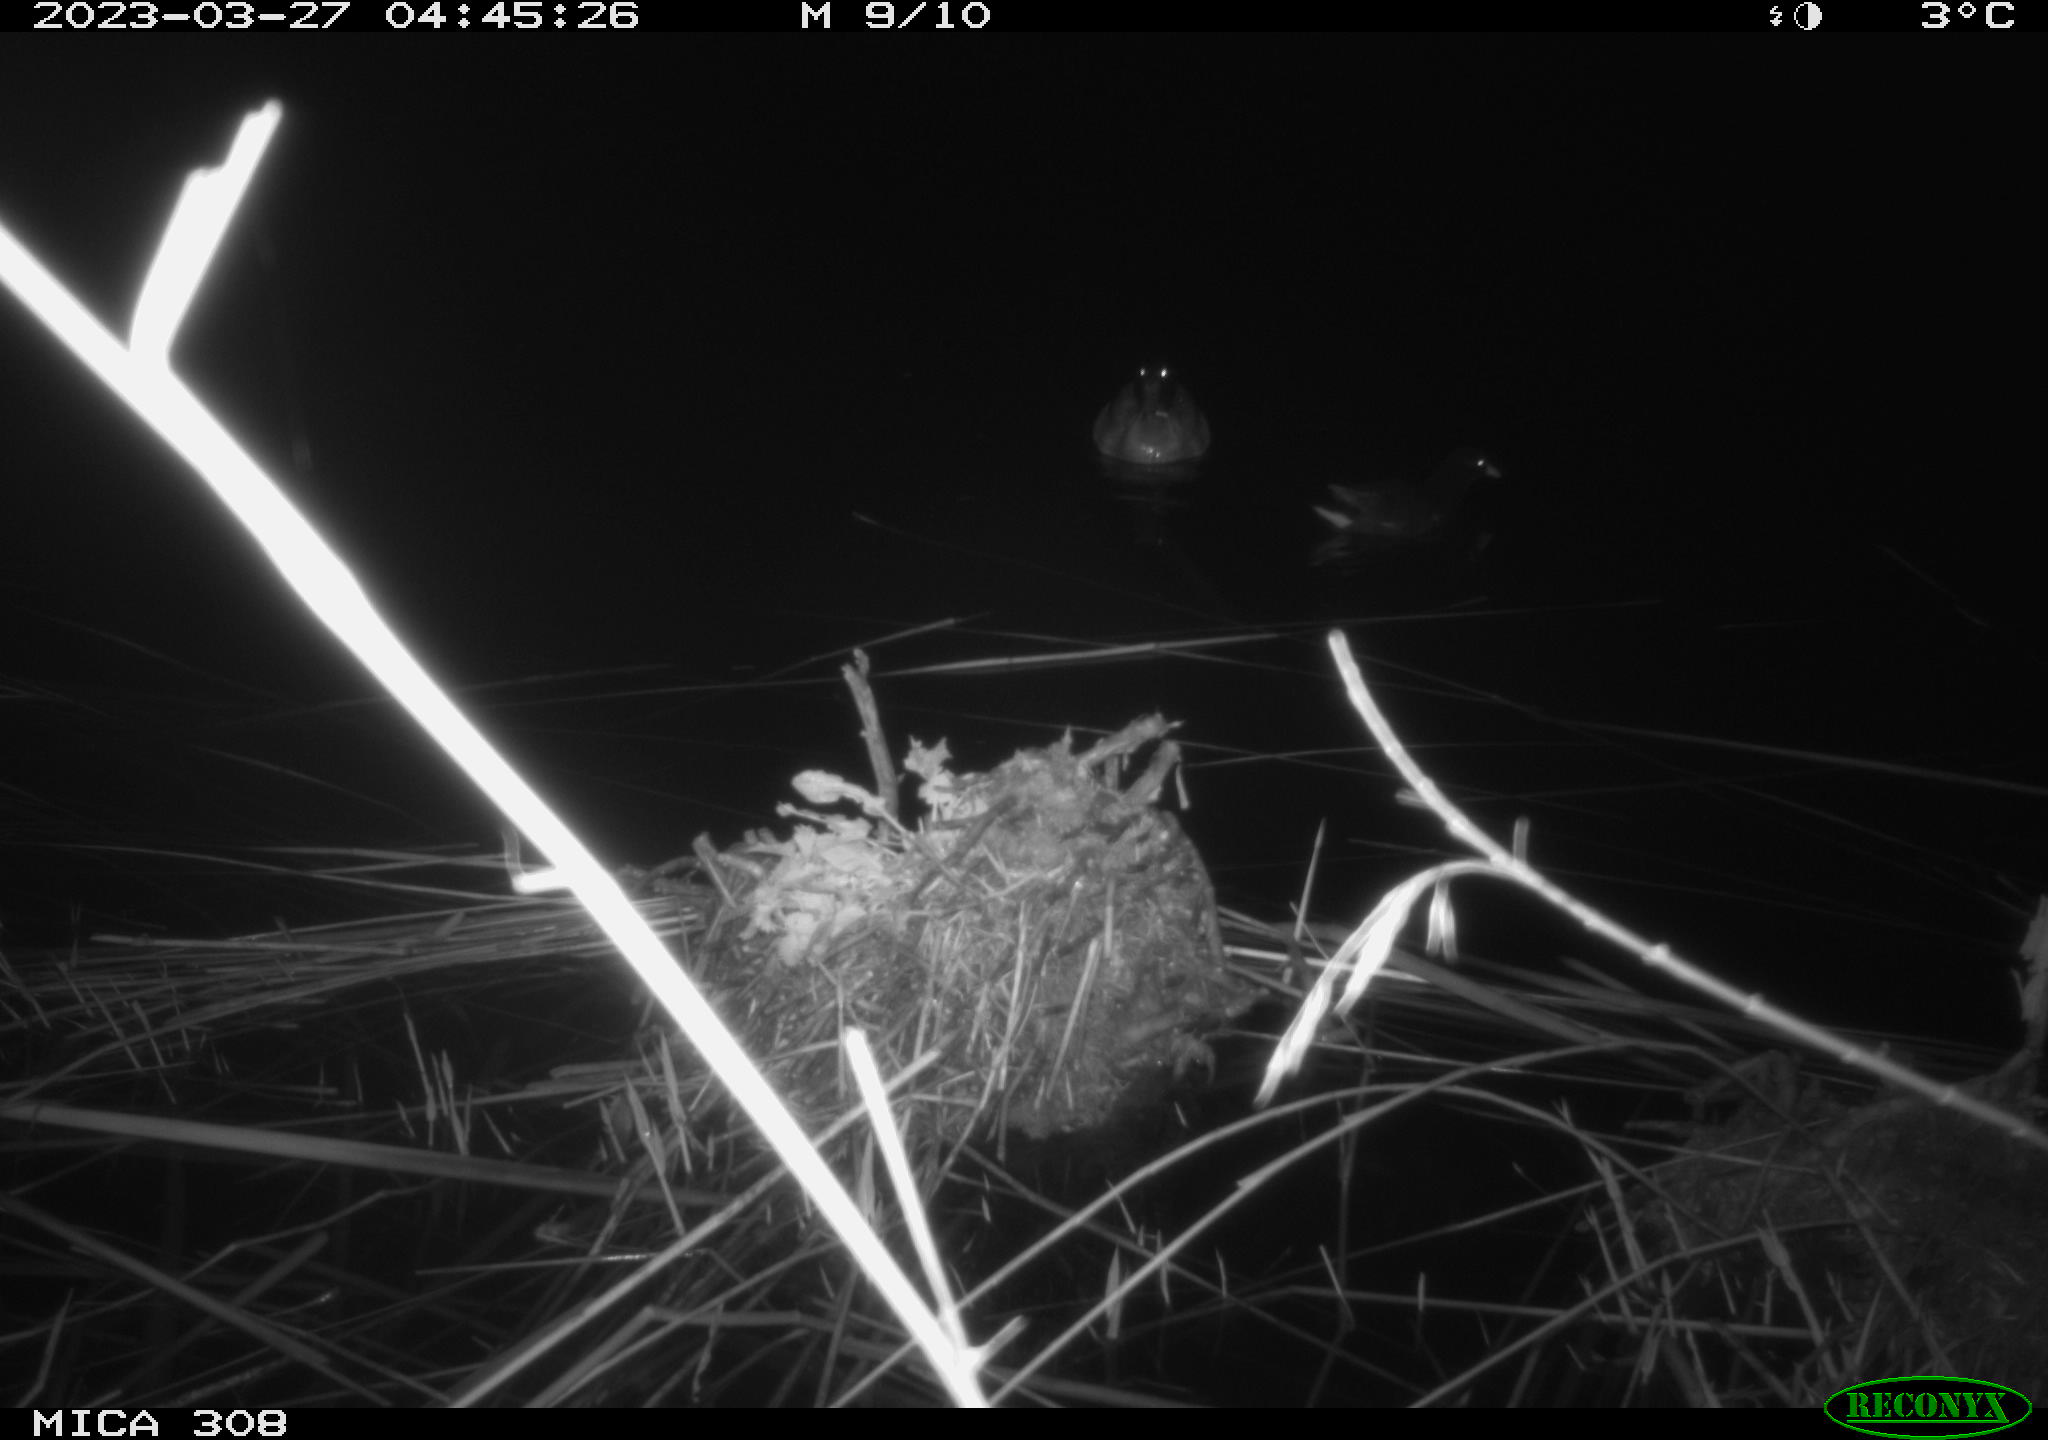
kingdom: Animalia
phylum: Chordata
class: Aves
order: Gruiformes
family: Rallidae
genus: Gallinula
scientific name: Gallinula chloropus
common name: Common moorhen
